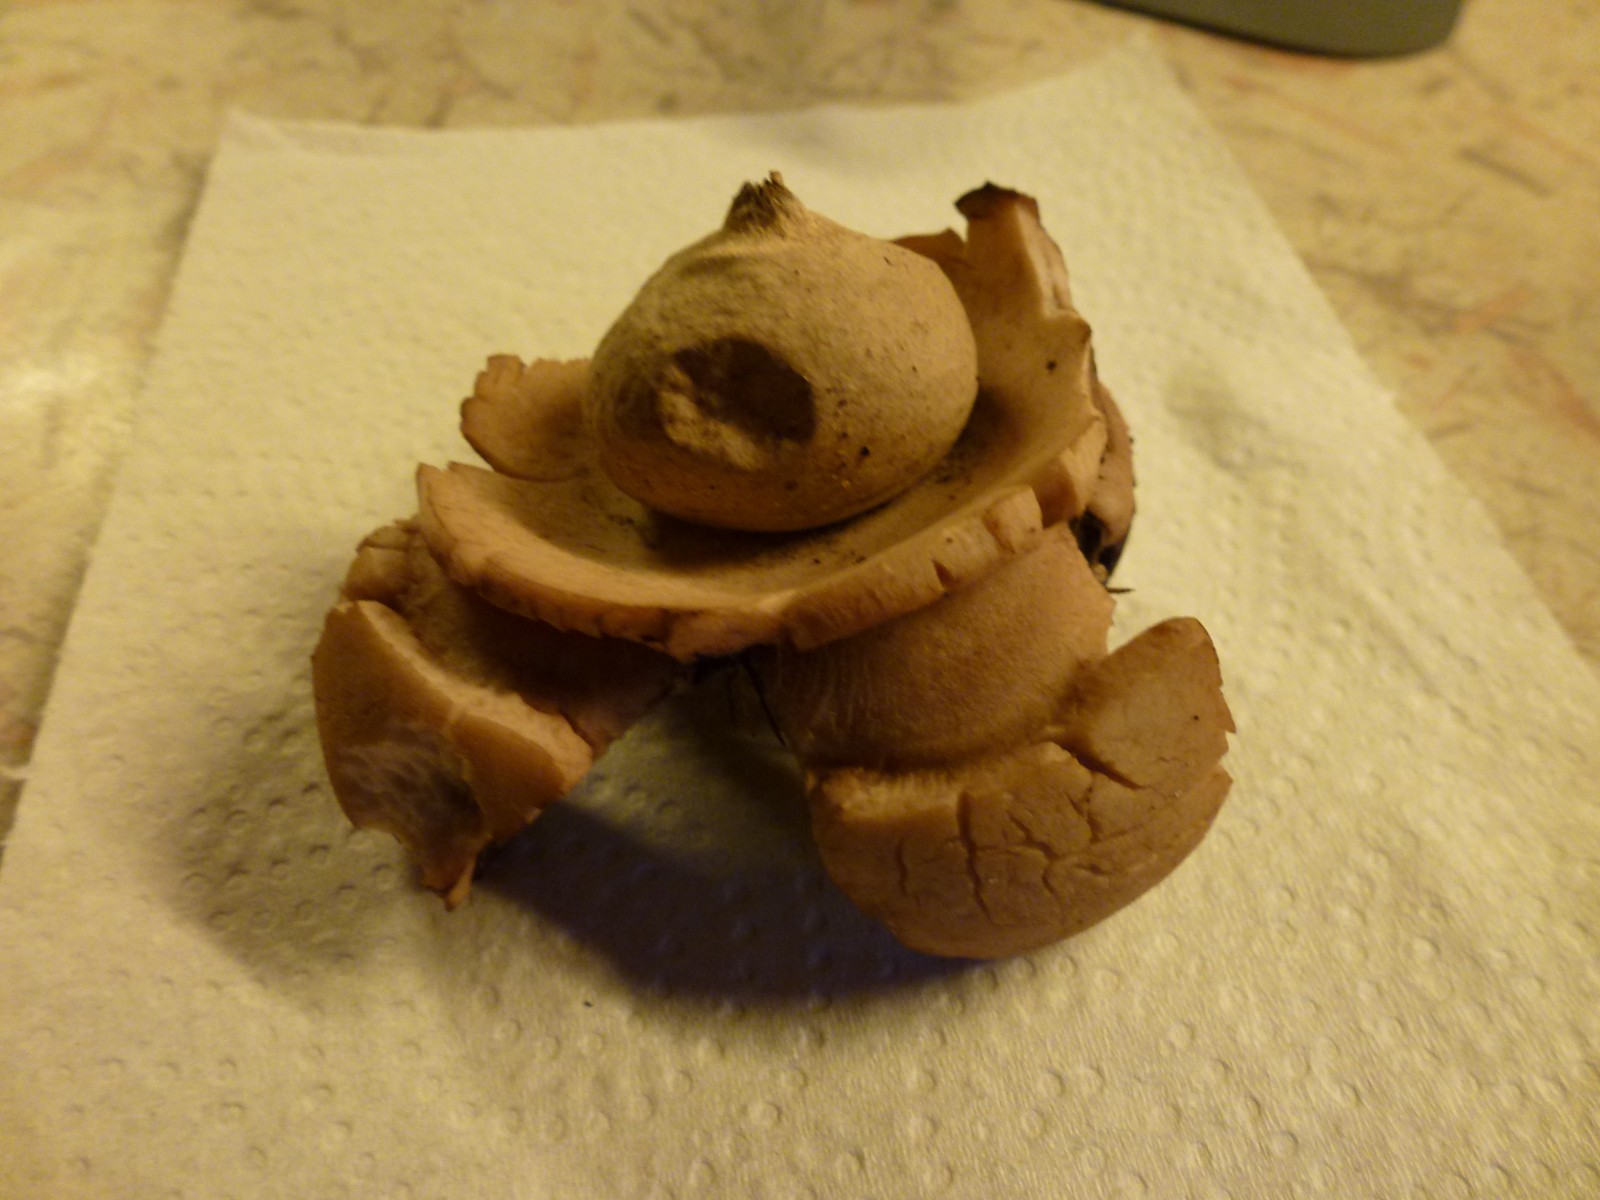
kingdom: Fungi
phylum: Basidiomycota
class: Agaricomycetes
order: Geastrales
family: Geastraceae
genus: Geastrum
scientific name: Geastrum michelianum
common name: kødet stjernebold
